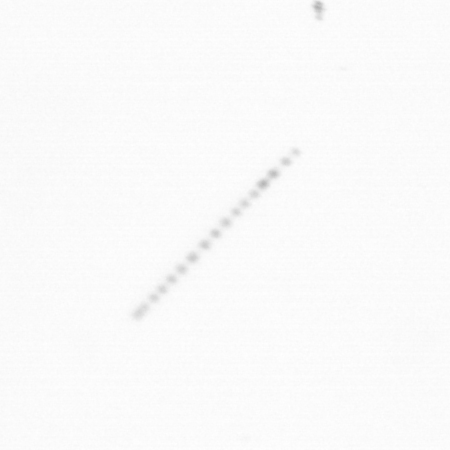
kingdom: Chromista
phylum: Ochrophyta
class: Bacillariophyceae
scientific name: Bacillariophyceae
